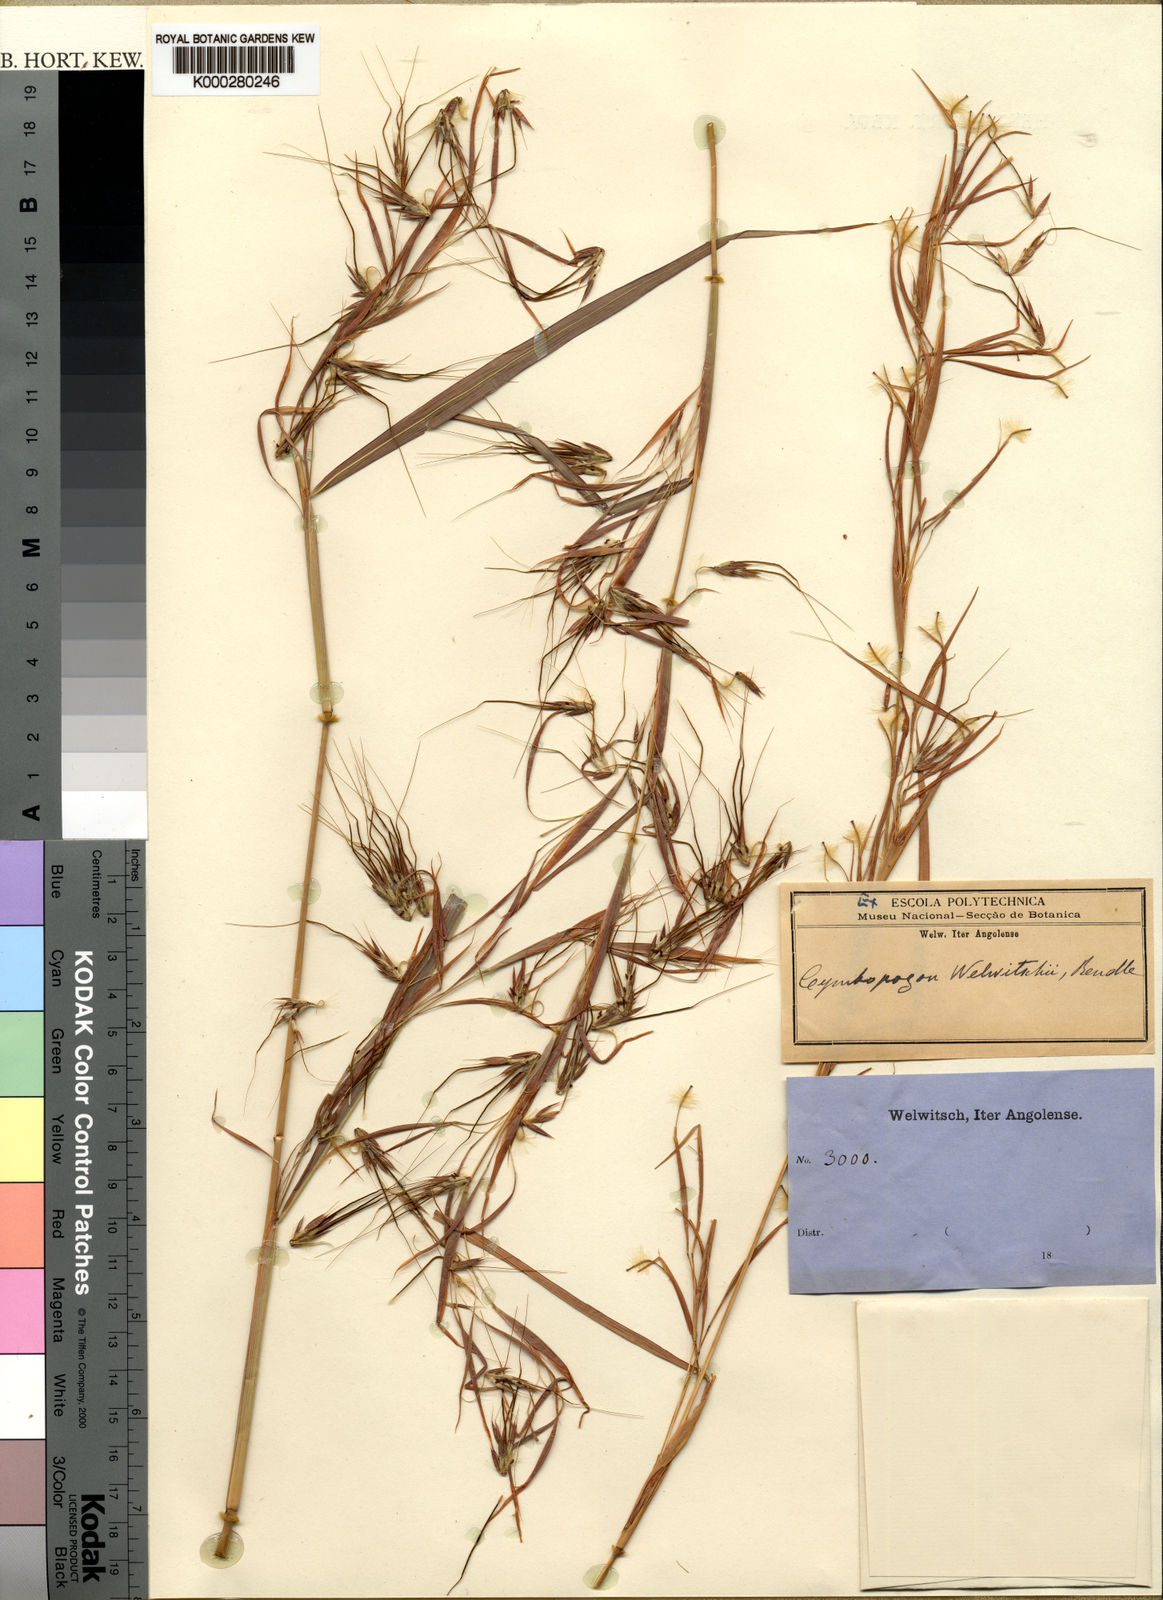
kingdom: Plantae
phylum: Tracheophyta
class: Liliopsida
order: Poales
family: Poaceae
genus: Hyparrhenia
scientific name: Hyparrhenia welwitschii
